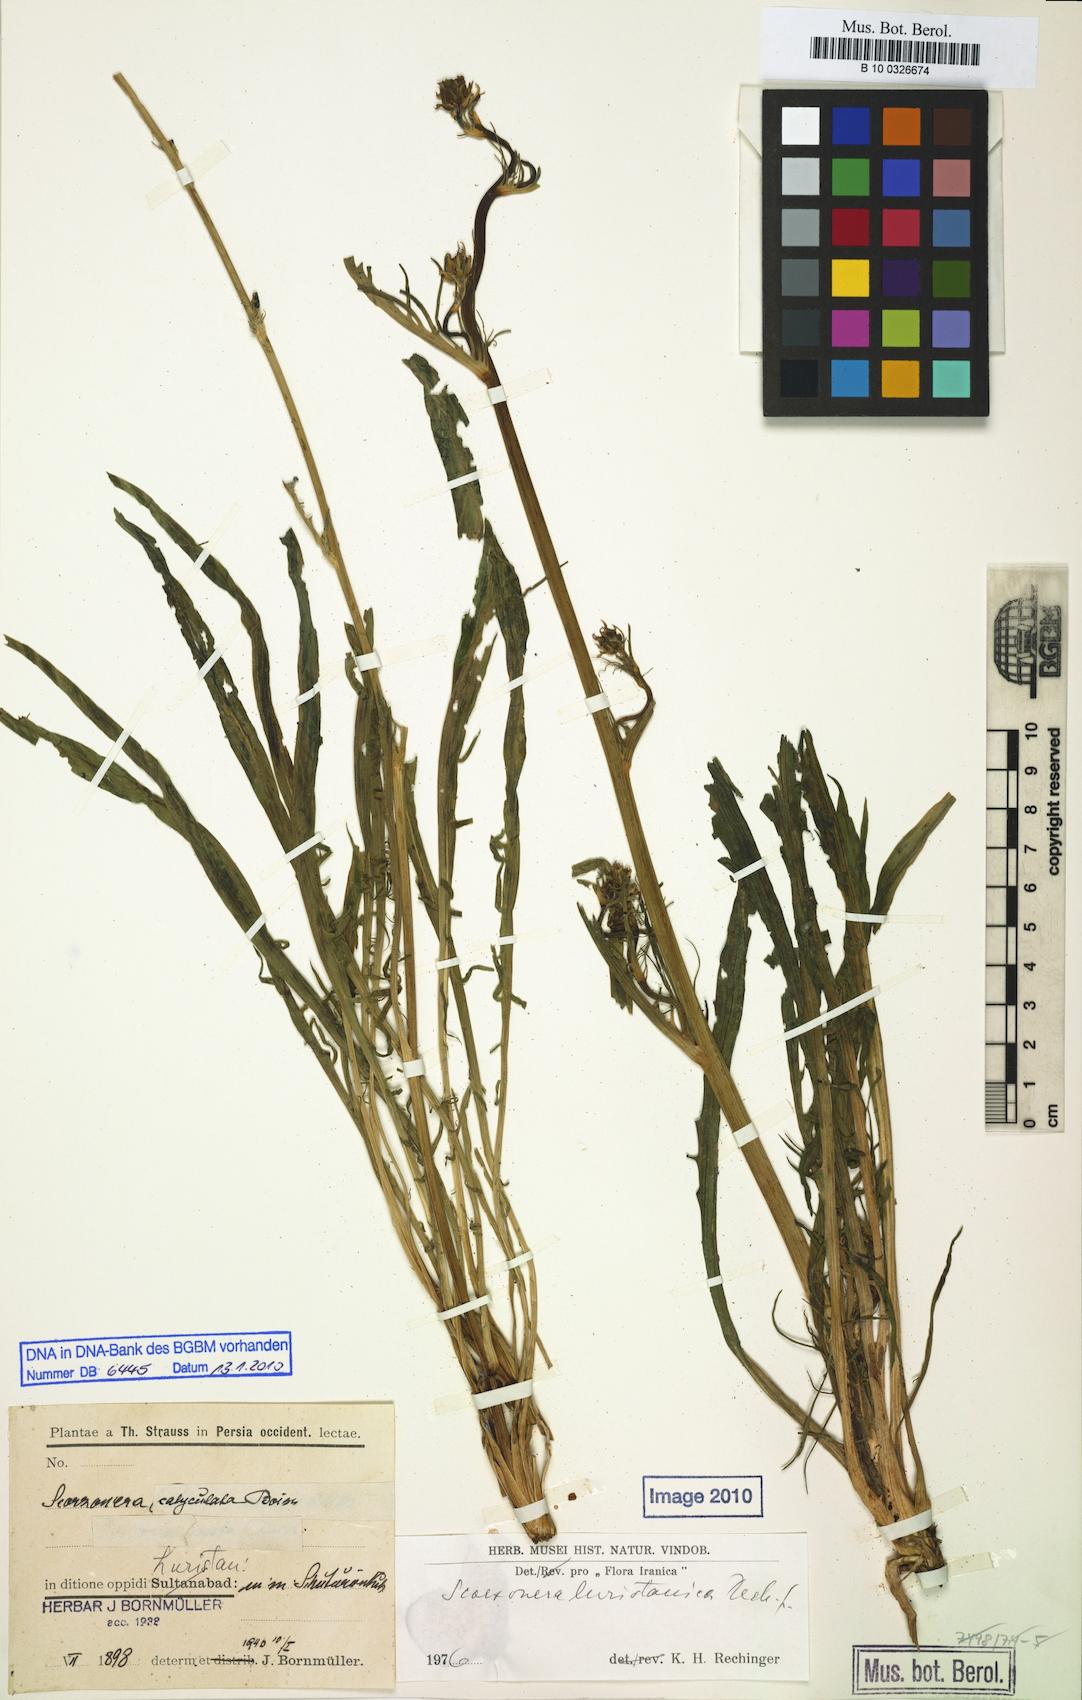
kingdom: Plantae
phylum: Tracheophyta
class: Magnoliopsida
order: Asterales
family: Asteraceae
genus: Scorzonera
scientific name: Scorzonera persepolitana
